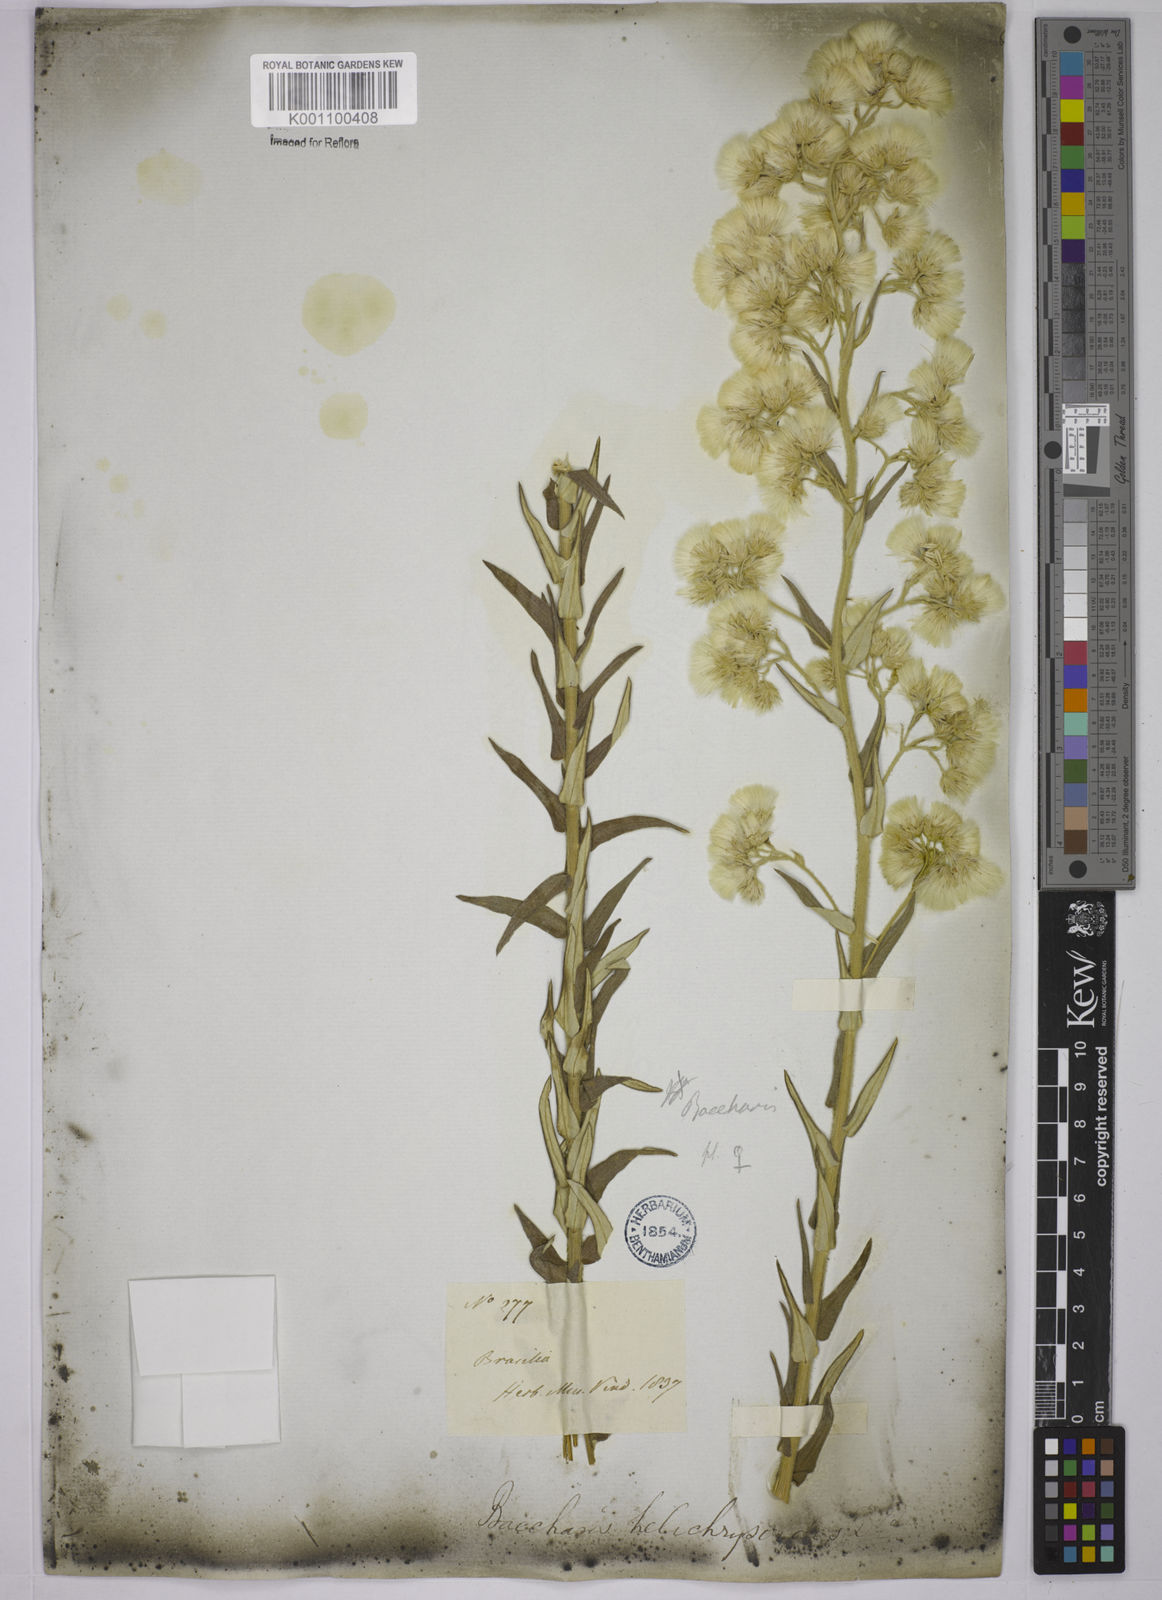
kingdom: Plantae
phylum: Tracheophyta
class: Magnoliopsida
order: Asterales
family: Asteraceae
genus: Baccharis
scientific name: Baccharis helichrysoides
